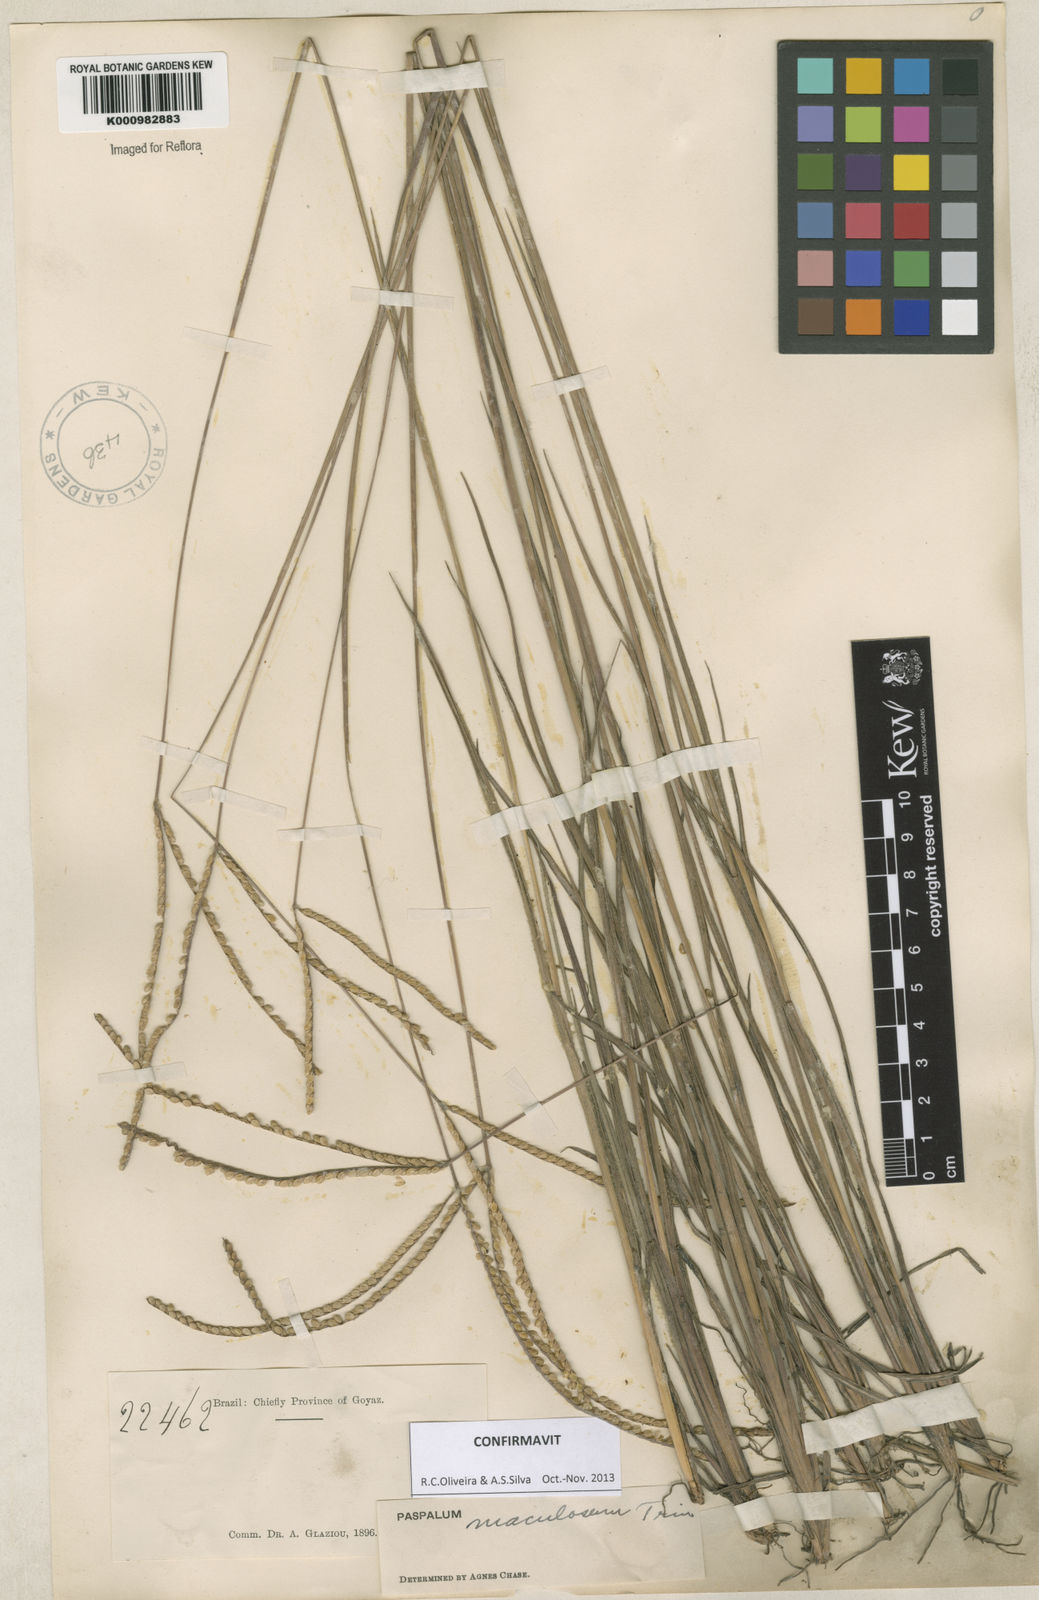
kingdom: Plantae
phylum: Tracheophyta
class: Liliopsida
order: Poales
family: Poaceae
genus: Paspalum
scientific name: Paspalum maculosum
